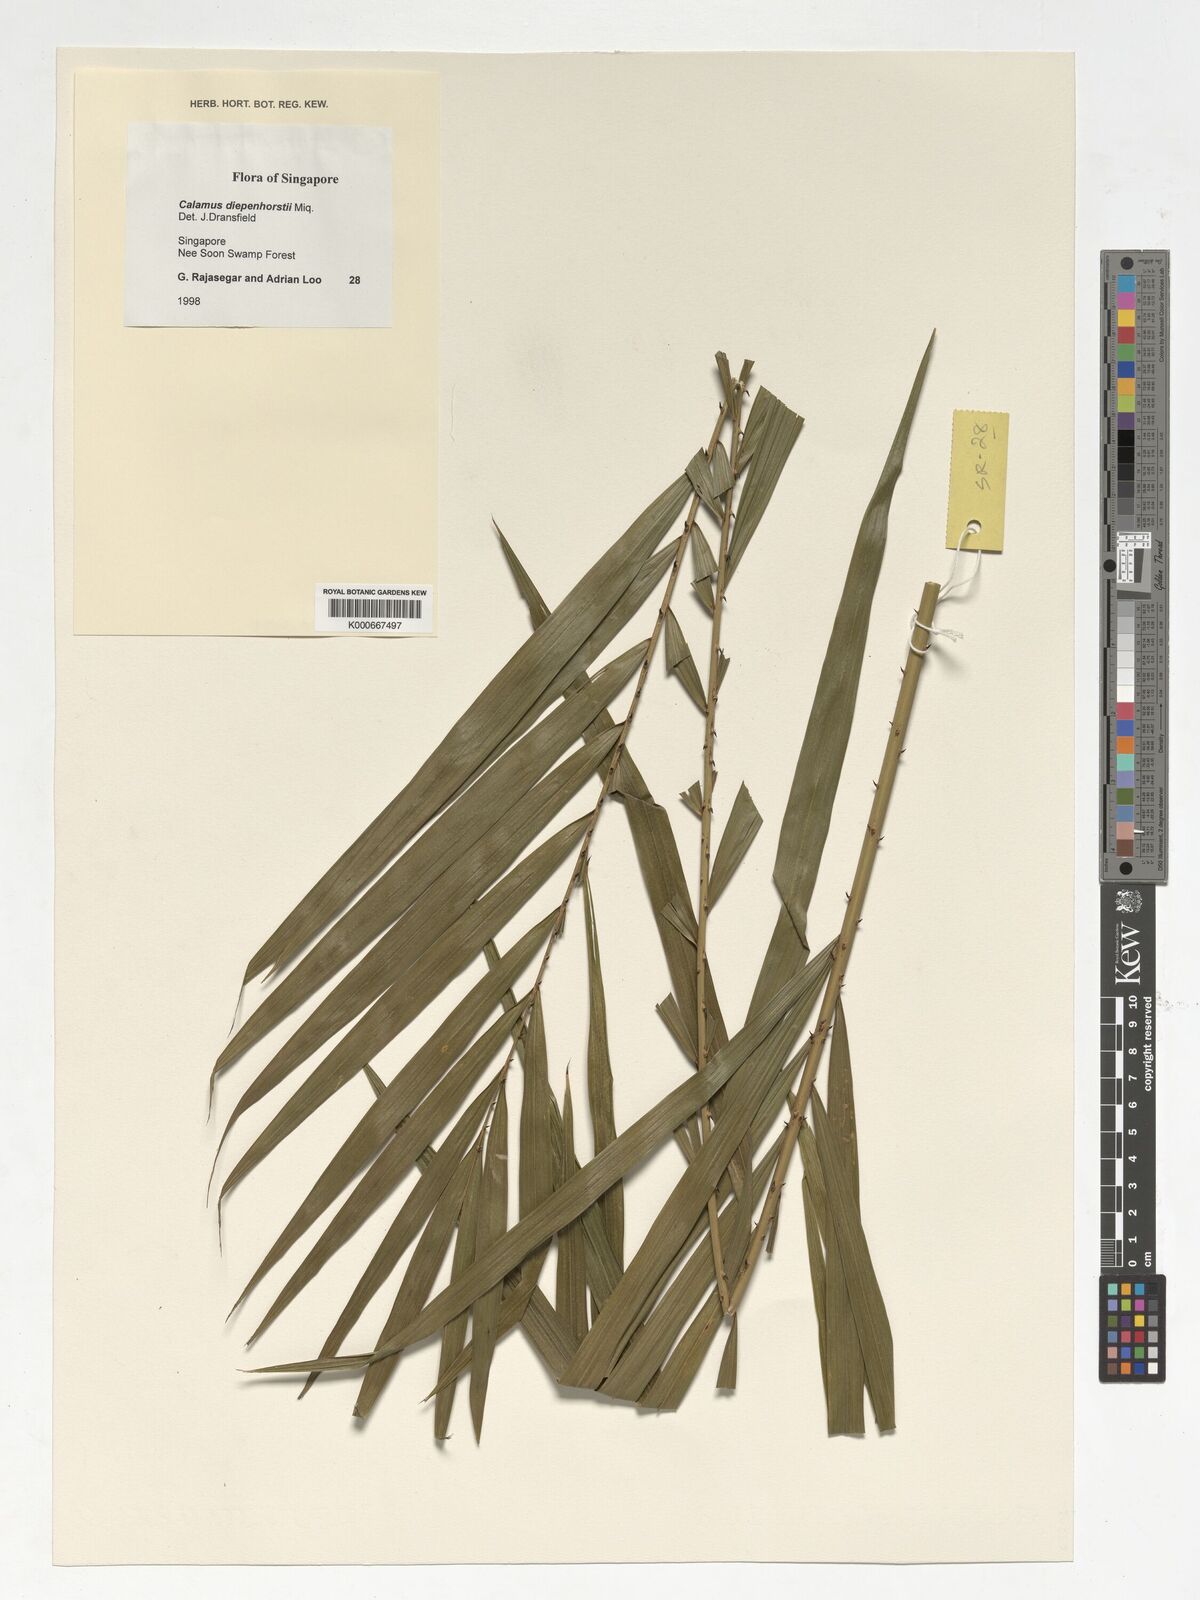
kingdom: Plantae
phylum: Tracheophyta
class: Liliopsida
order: Arecales
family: Arecaceae
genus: Calamus
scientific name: Calamus diepenhorstii
